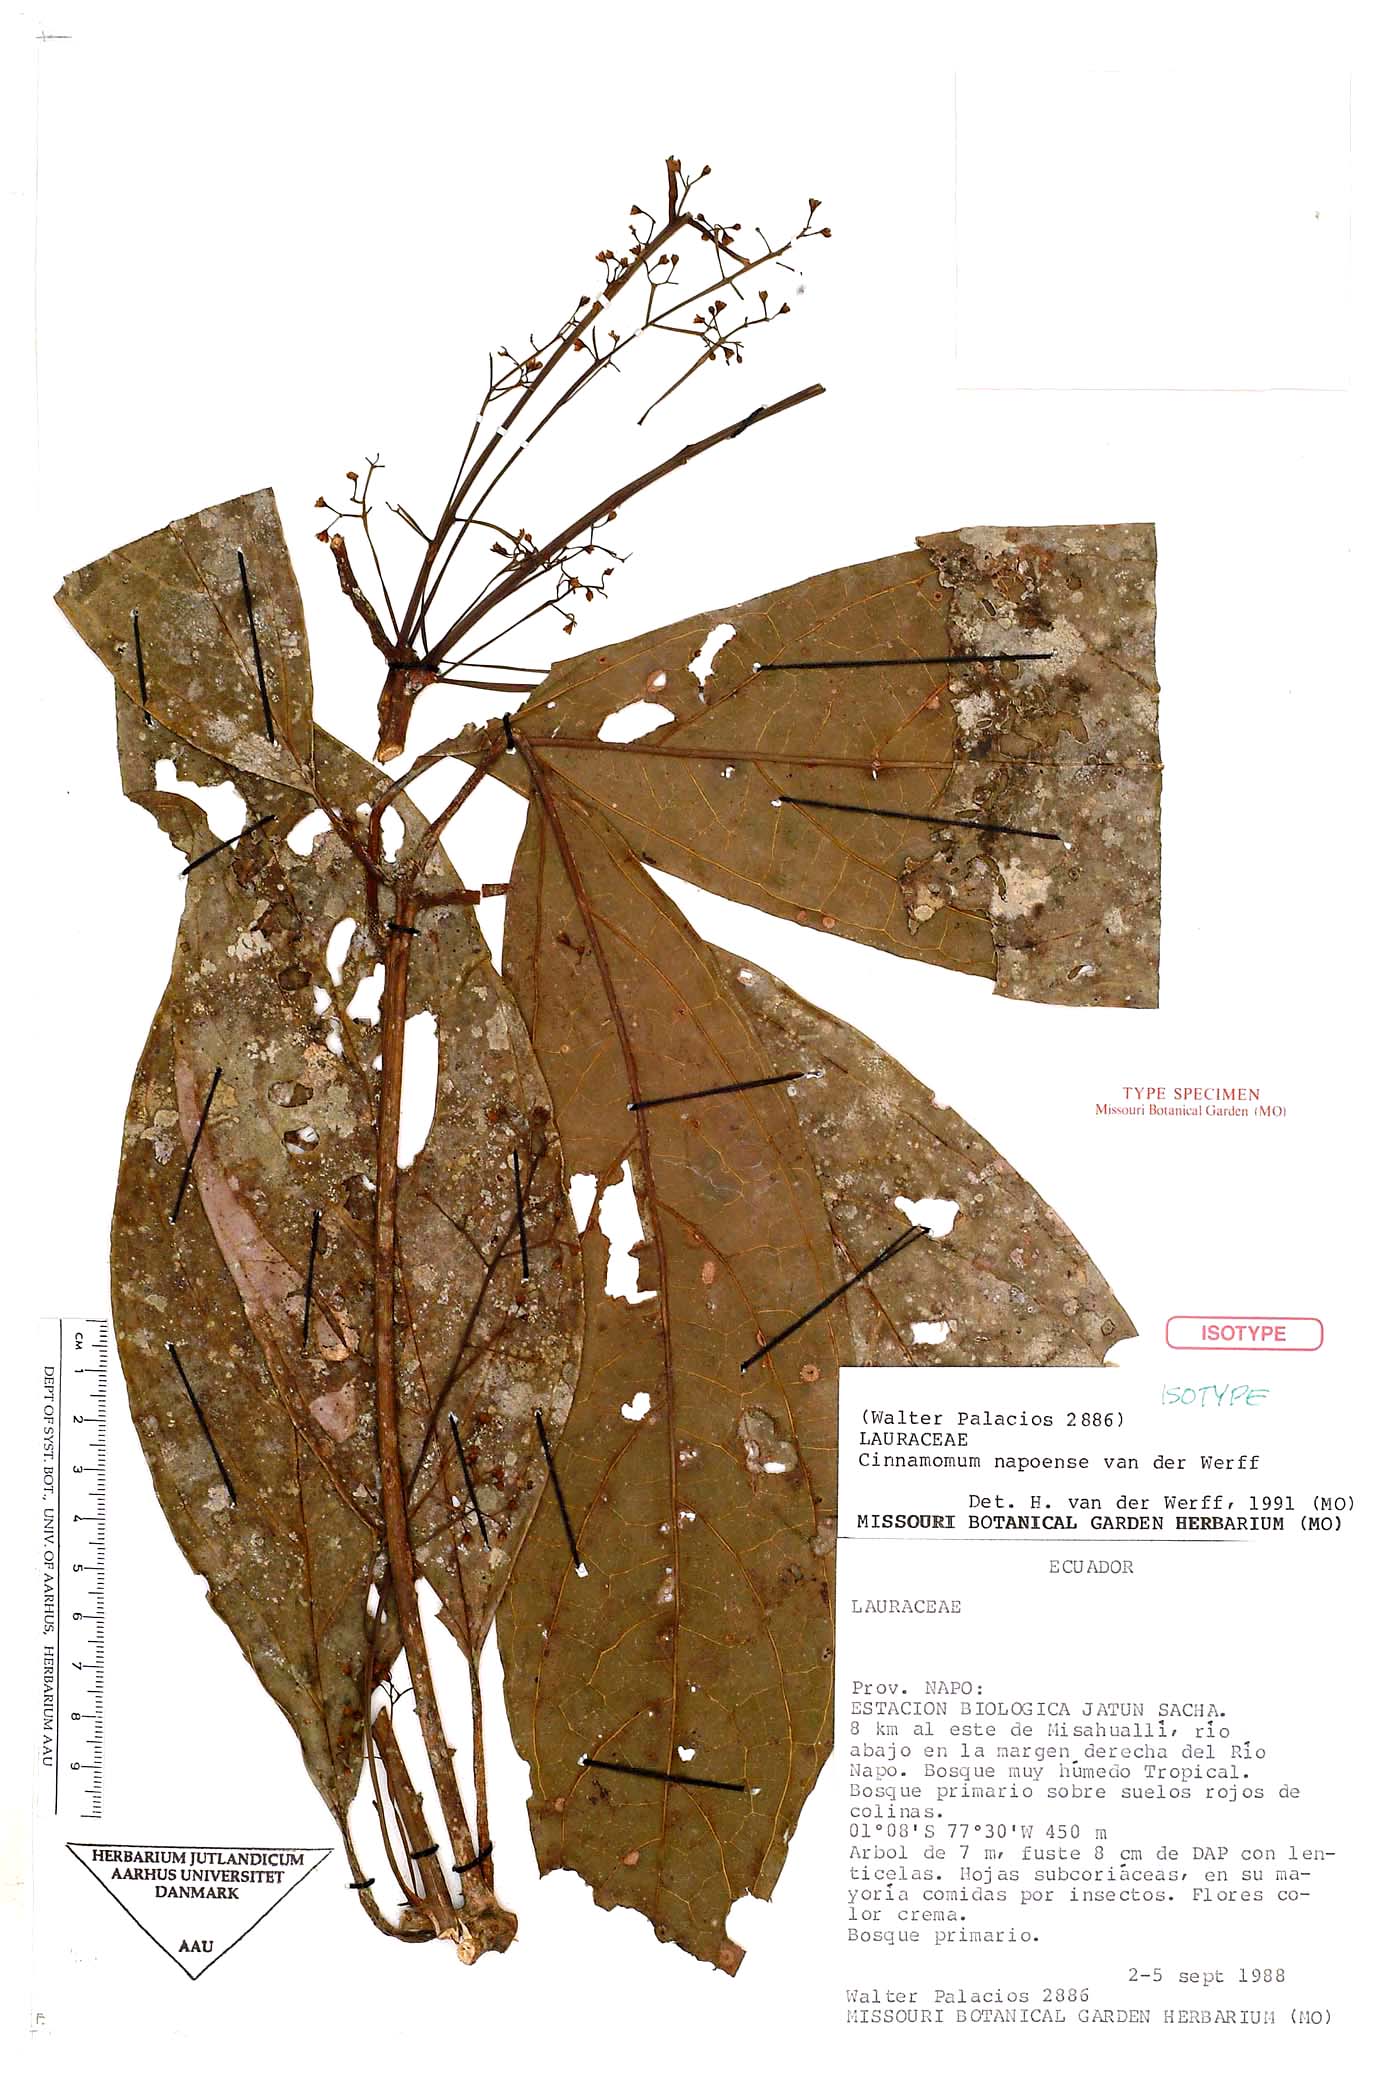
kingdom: Plantae
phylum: Tracheophyta
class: Magnoliopsida
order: Laurales
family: Lauraceae
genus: Aiouea
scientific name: Aiouea napoensis
